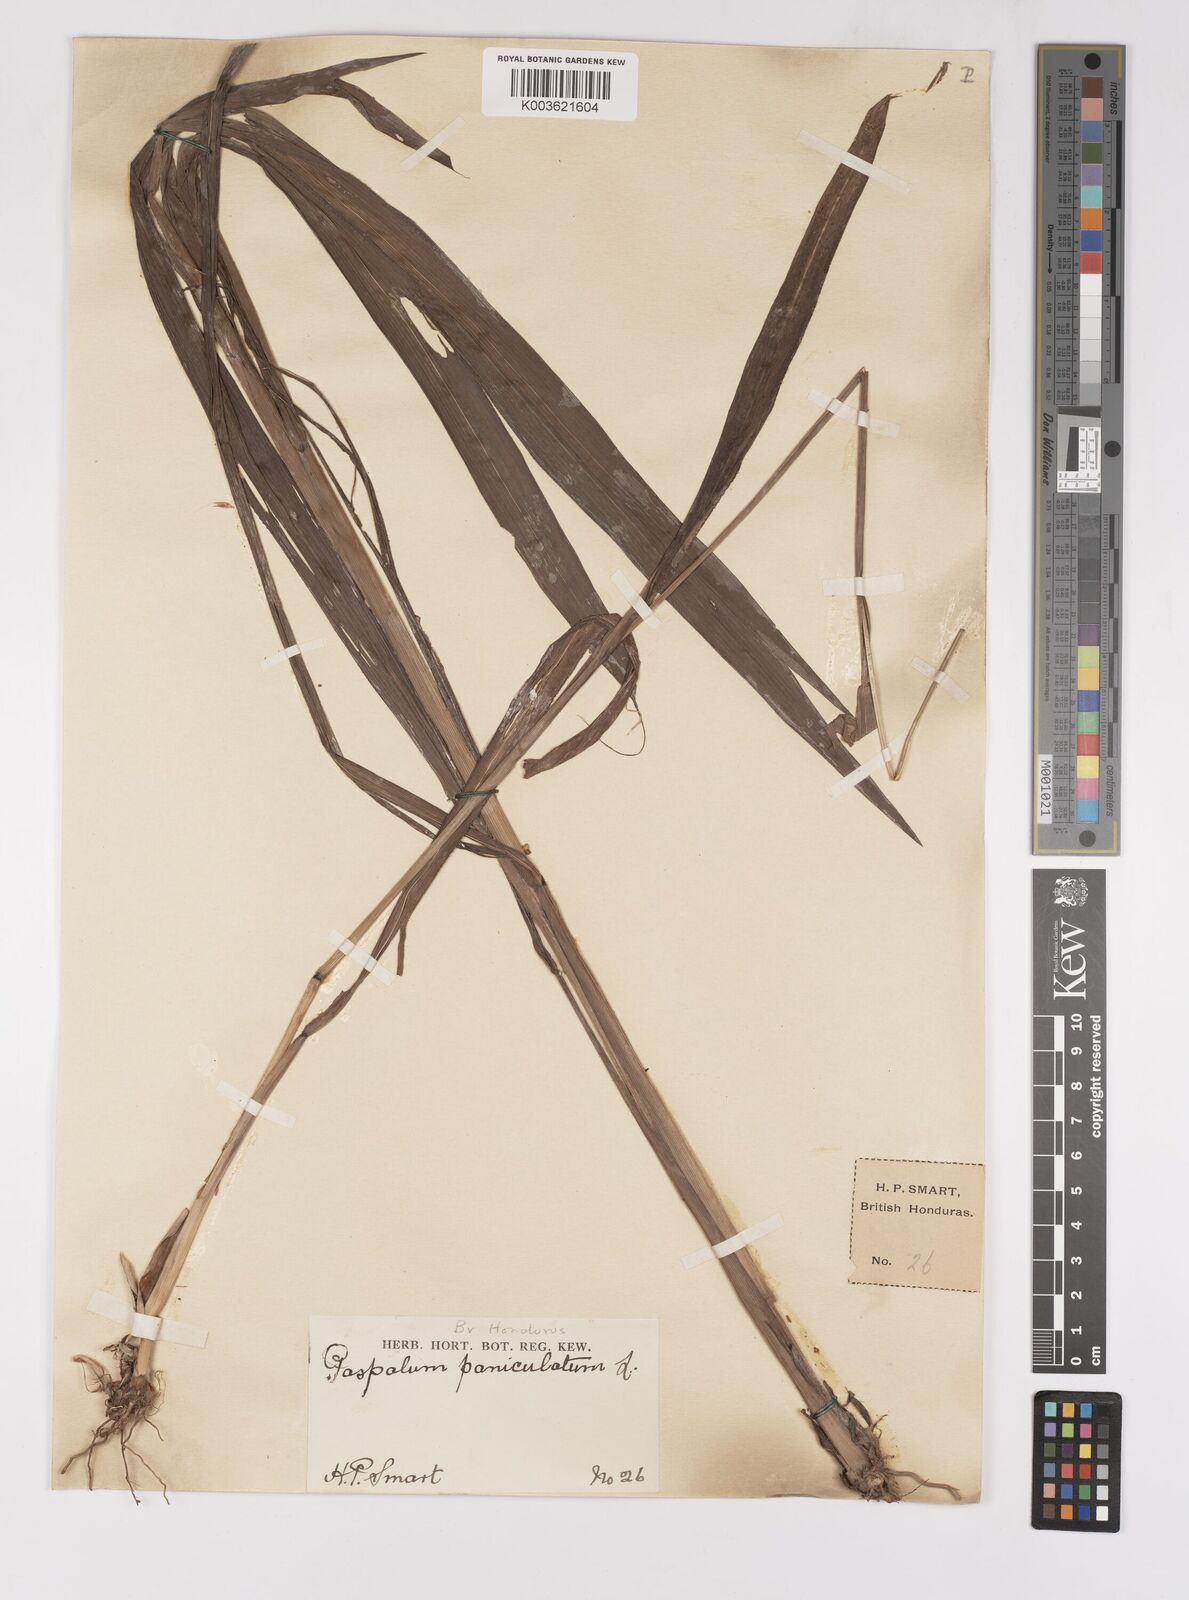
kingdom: Plantae
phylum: Tracheophyta
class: Liliopsida
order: Poales
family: Poaceae
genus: Paspalum
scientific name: Paspalum paniculatum
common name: Arrocillo
